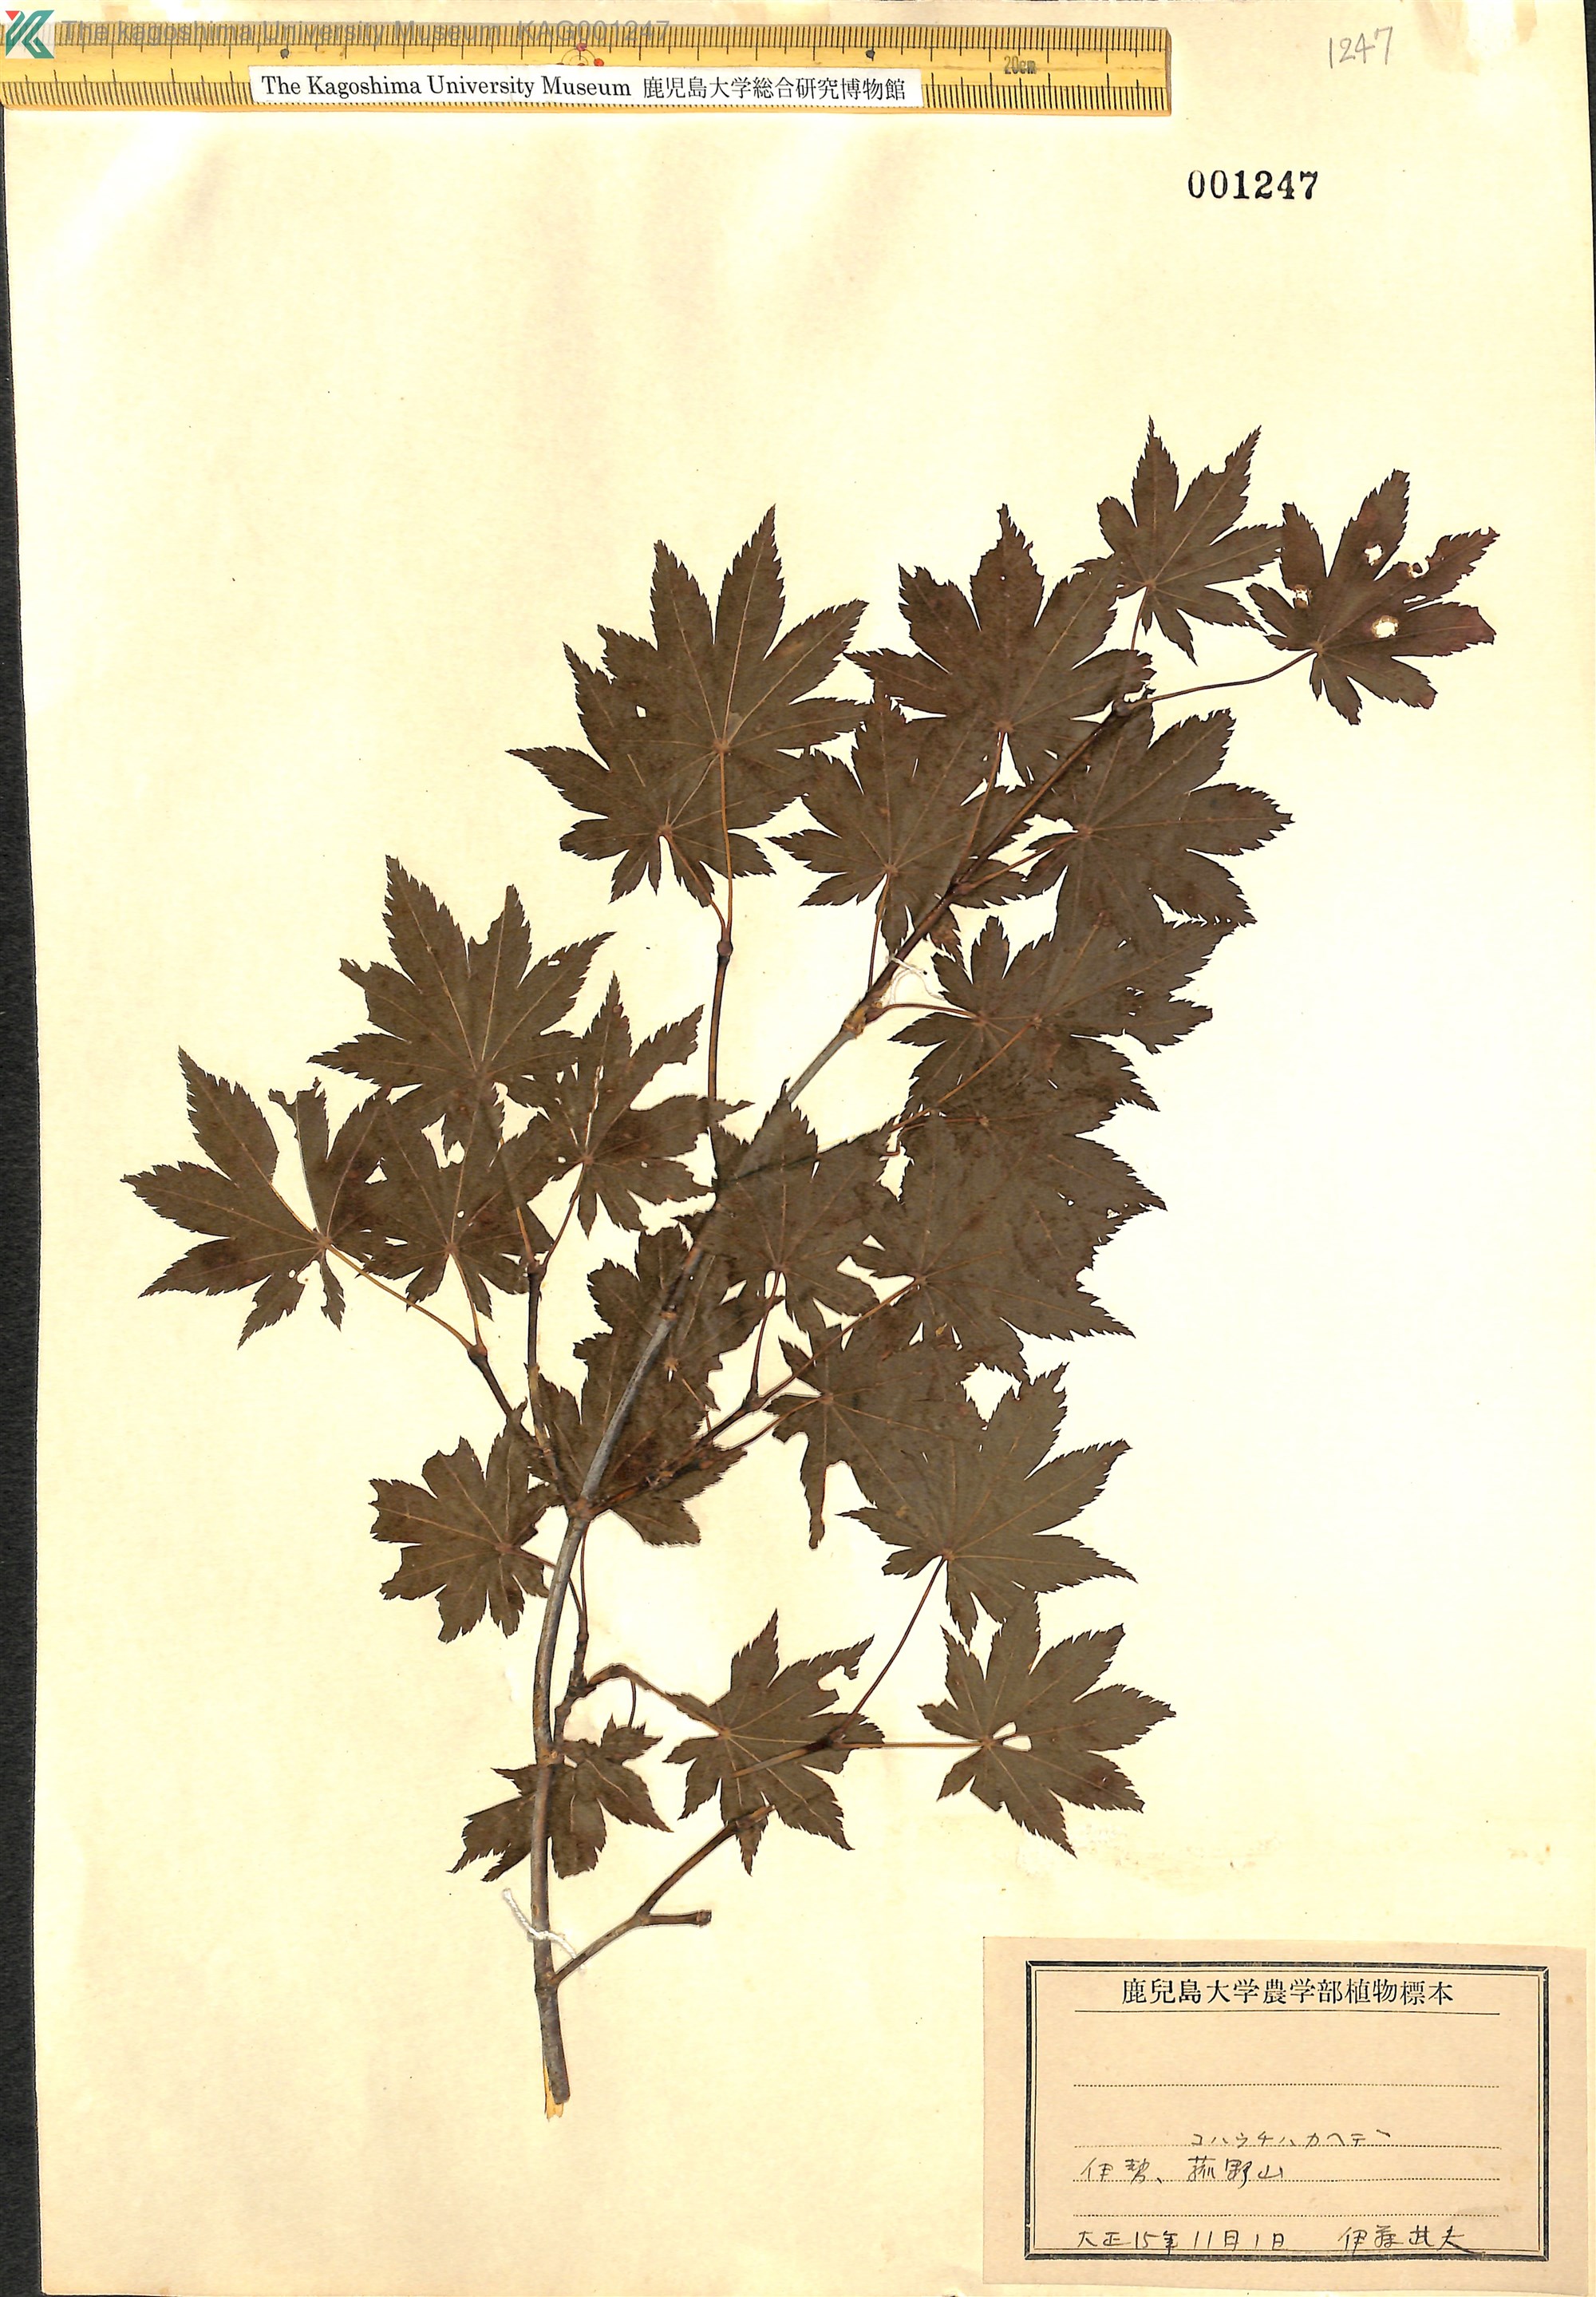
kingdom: Plantae
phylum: Tracheophyta
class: Magnoliopsida
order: Sapindales
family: Sapindaceae
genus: Acer
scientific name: Acer sieboldianum
